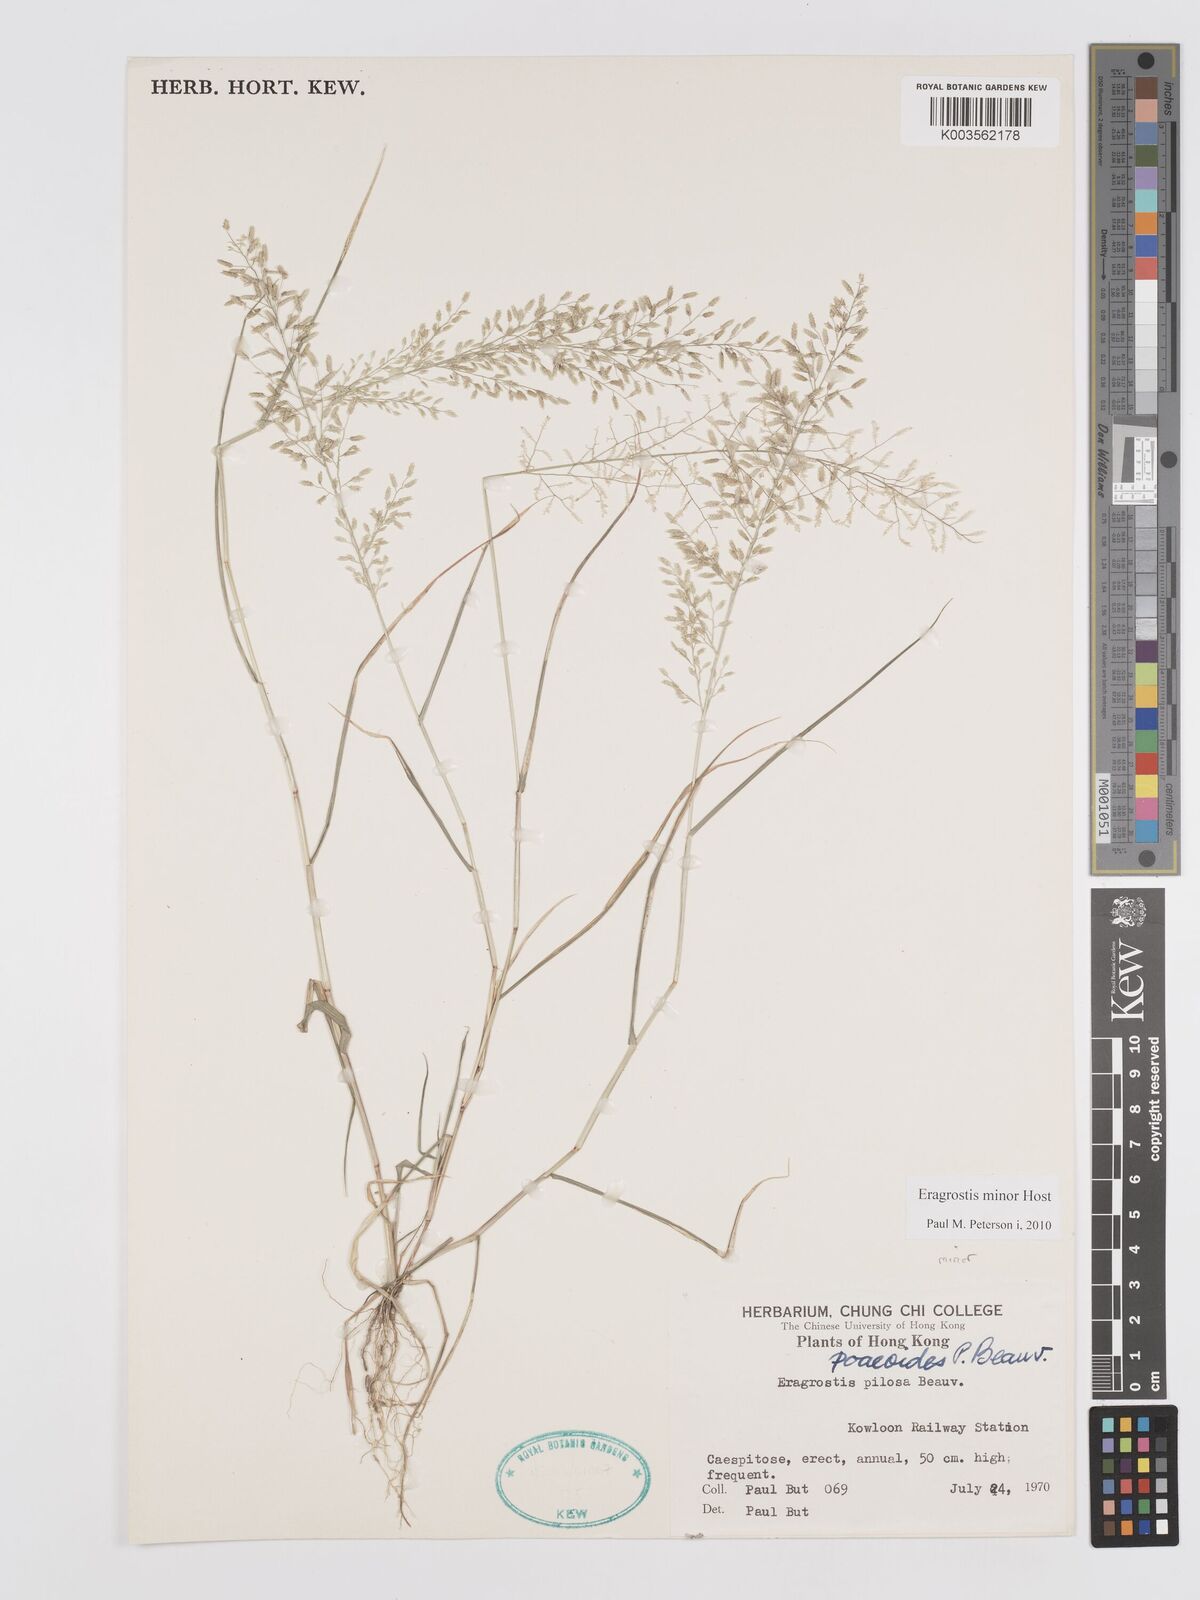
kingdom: Plantae
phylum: Tracheophyta
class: Liliopsida
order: Poales
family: Poaceae
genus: Eragrostis
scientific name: Eragrostis minor
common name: Small love-grass
